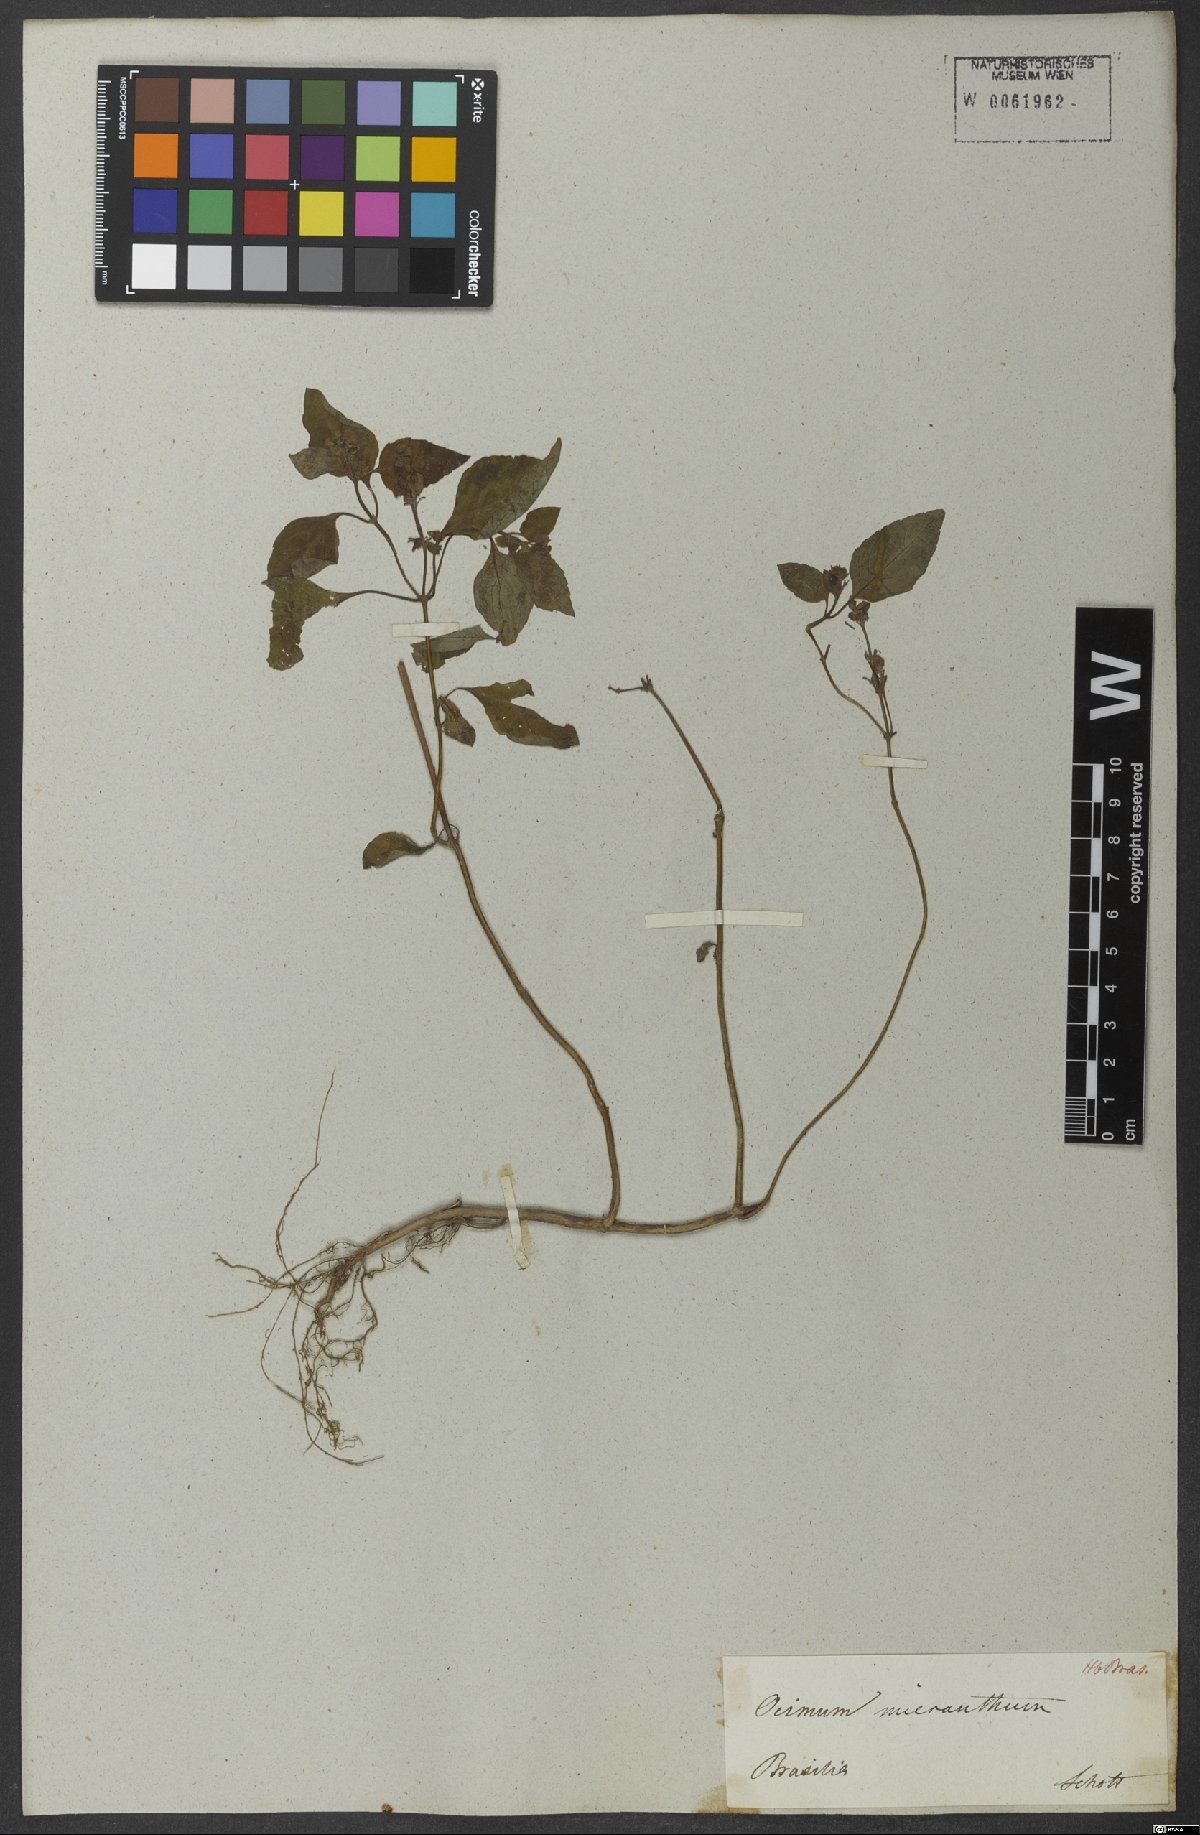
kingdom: Plantae
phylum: Tracheophyta
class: Magnoliopsida
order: Lamiales
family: Lamiaceae
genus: Ocimum
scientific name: Ocimum campechianum
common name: Mosquito basil
